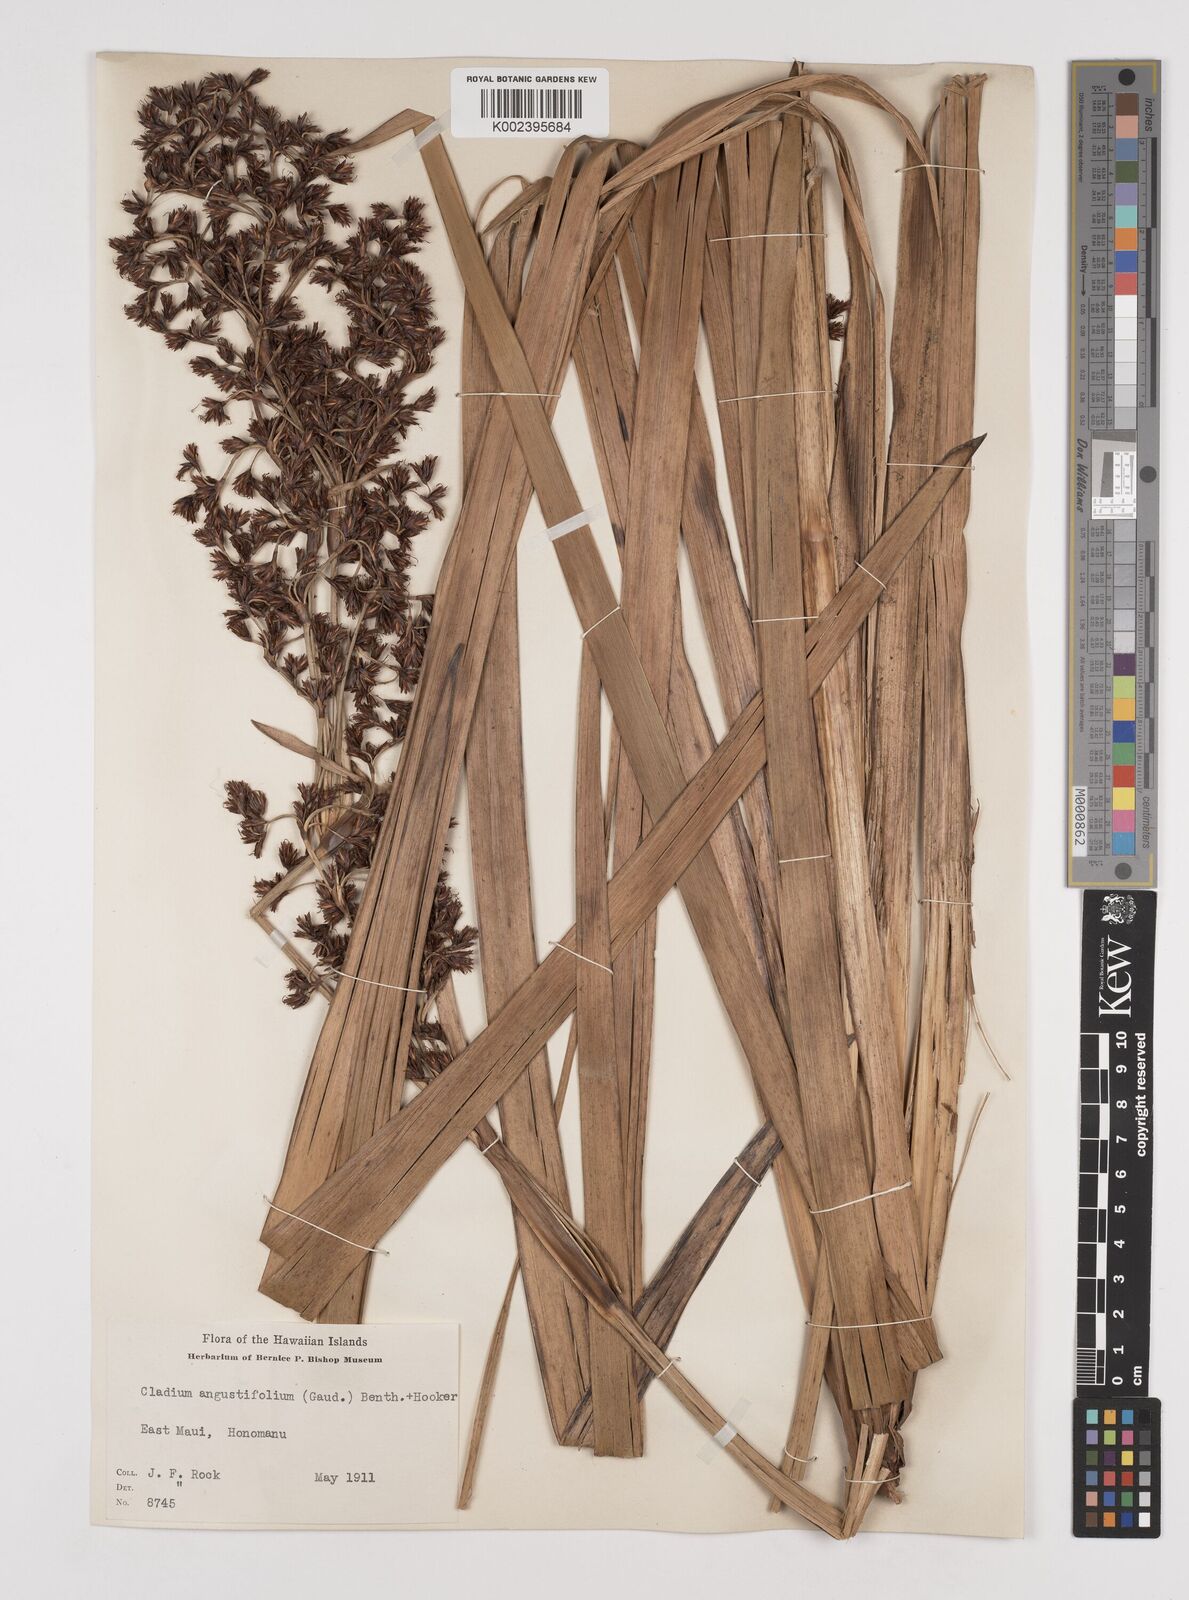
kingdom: Plantae
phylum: Tracheophyta
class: Liliopsida
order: Poales
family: Cyperaceae
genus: Machaerina
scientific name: Machaerina angustifolia
